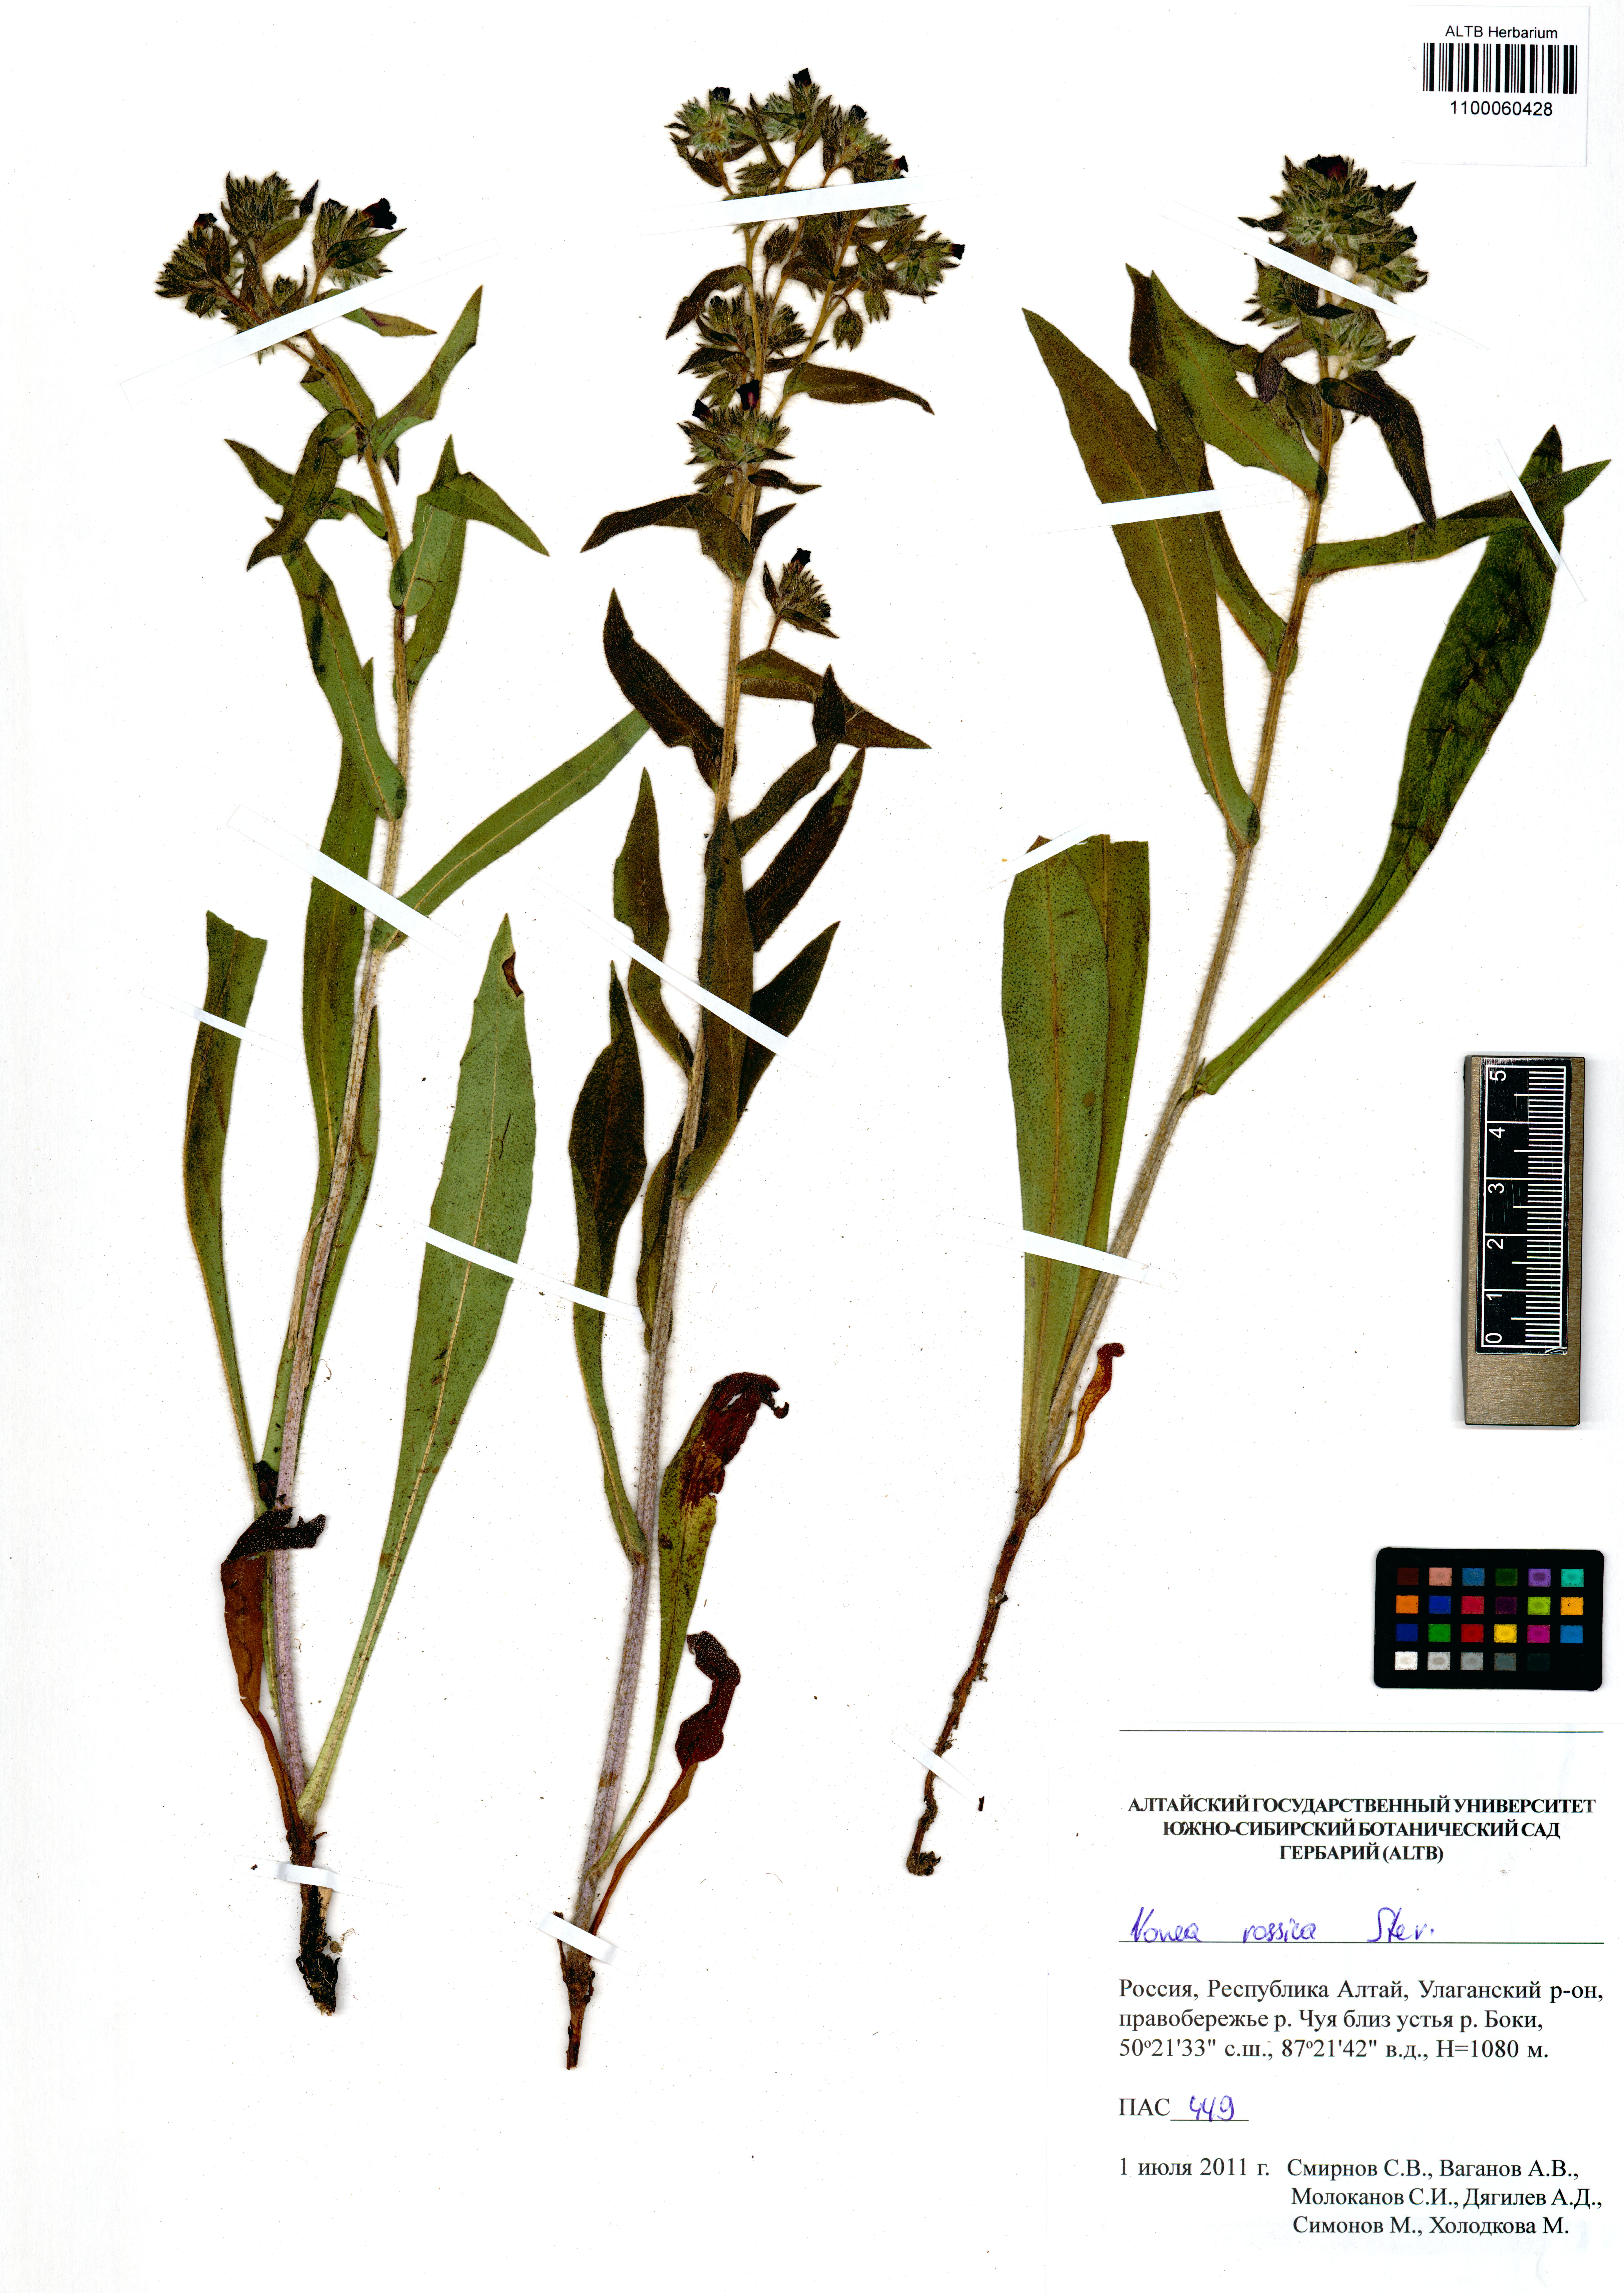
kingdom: Plantae
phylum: Tracheophyta
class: Magnoliopsida
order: Boraginales
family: Boraginaceae
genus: Nonea
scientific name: Nonea pulla
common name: Brown nonea
